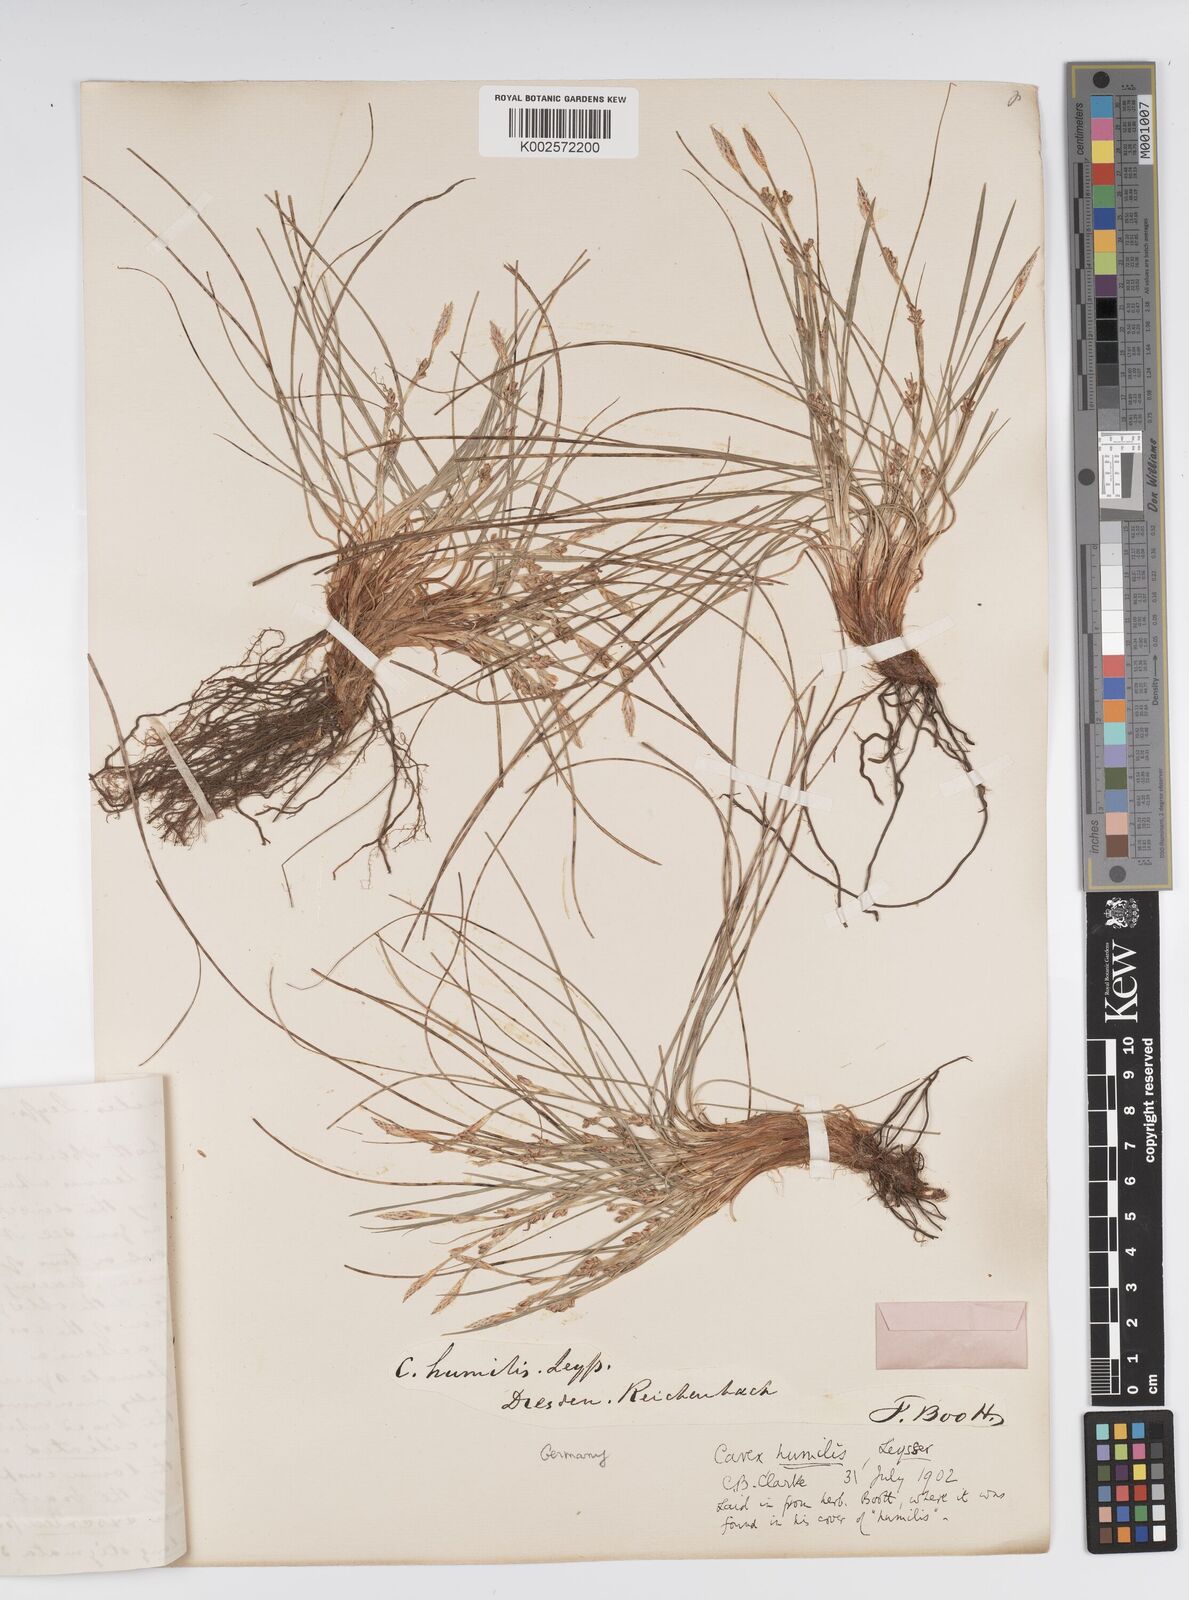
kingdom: Plantae
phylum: Tracheophyta
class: Liliopsida
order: Poales
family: Cyperaceae
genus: Carex
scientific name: Carex humilis
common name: Dwarf sedge
